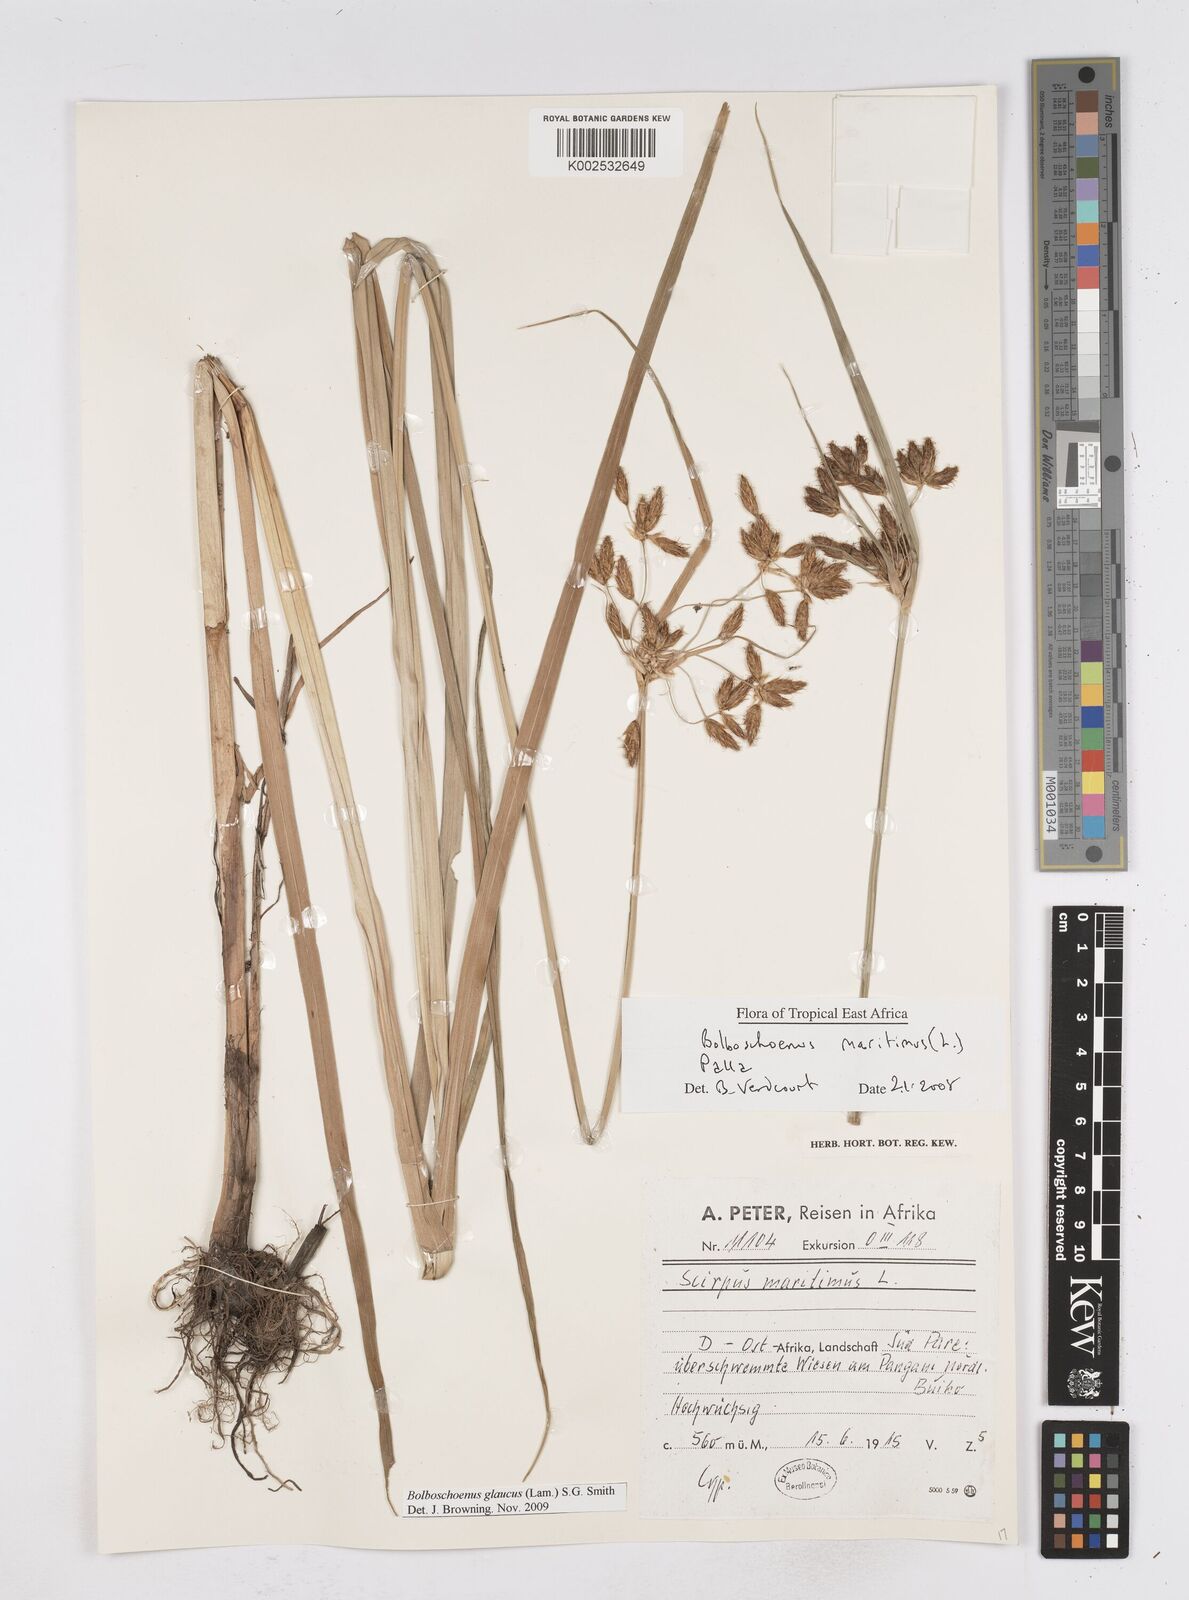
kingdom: Plantae
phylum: Tracheophyta
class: Liliopsida
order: Poales
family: Cyperaceae
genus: Bolboschoenus
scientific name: Bolboschoenus glaucus
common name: Tuberous bulrush
